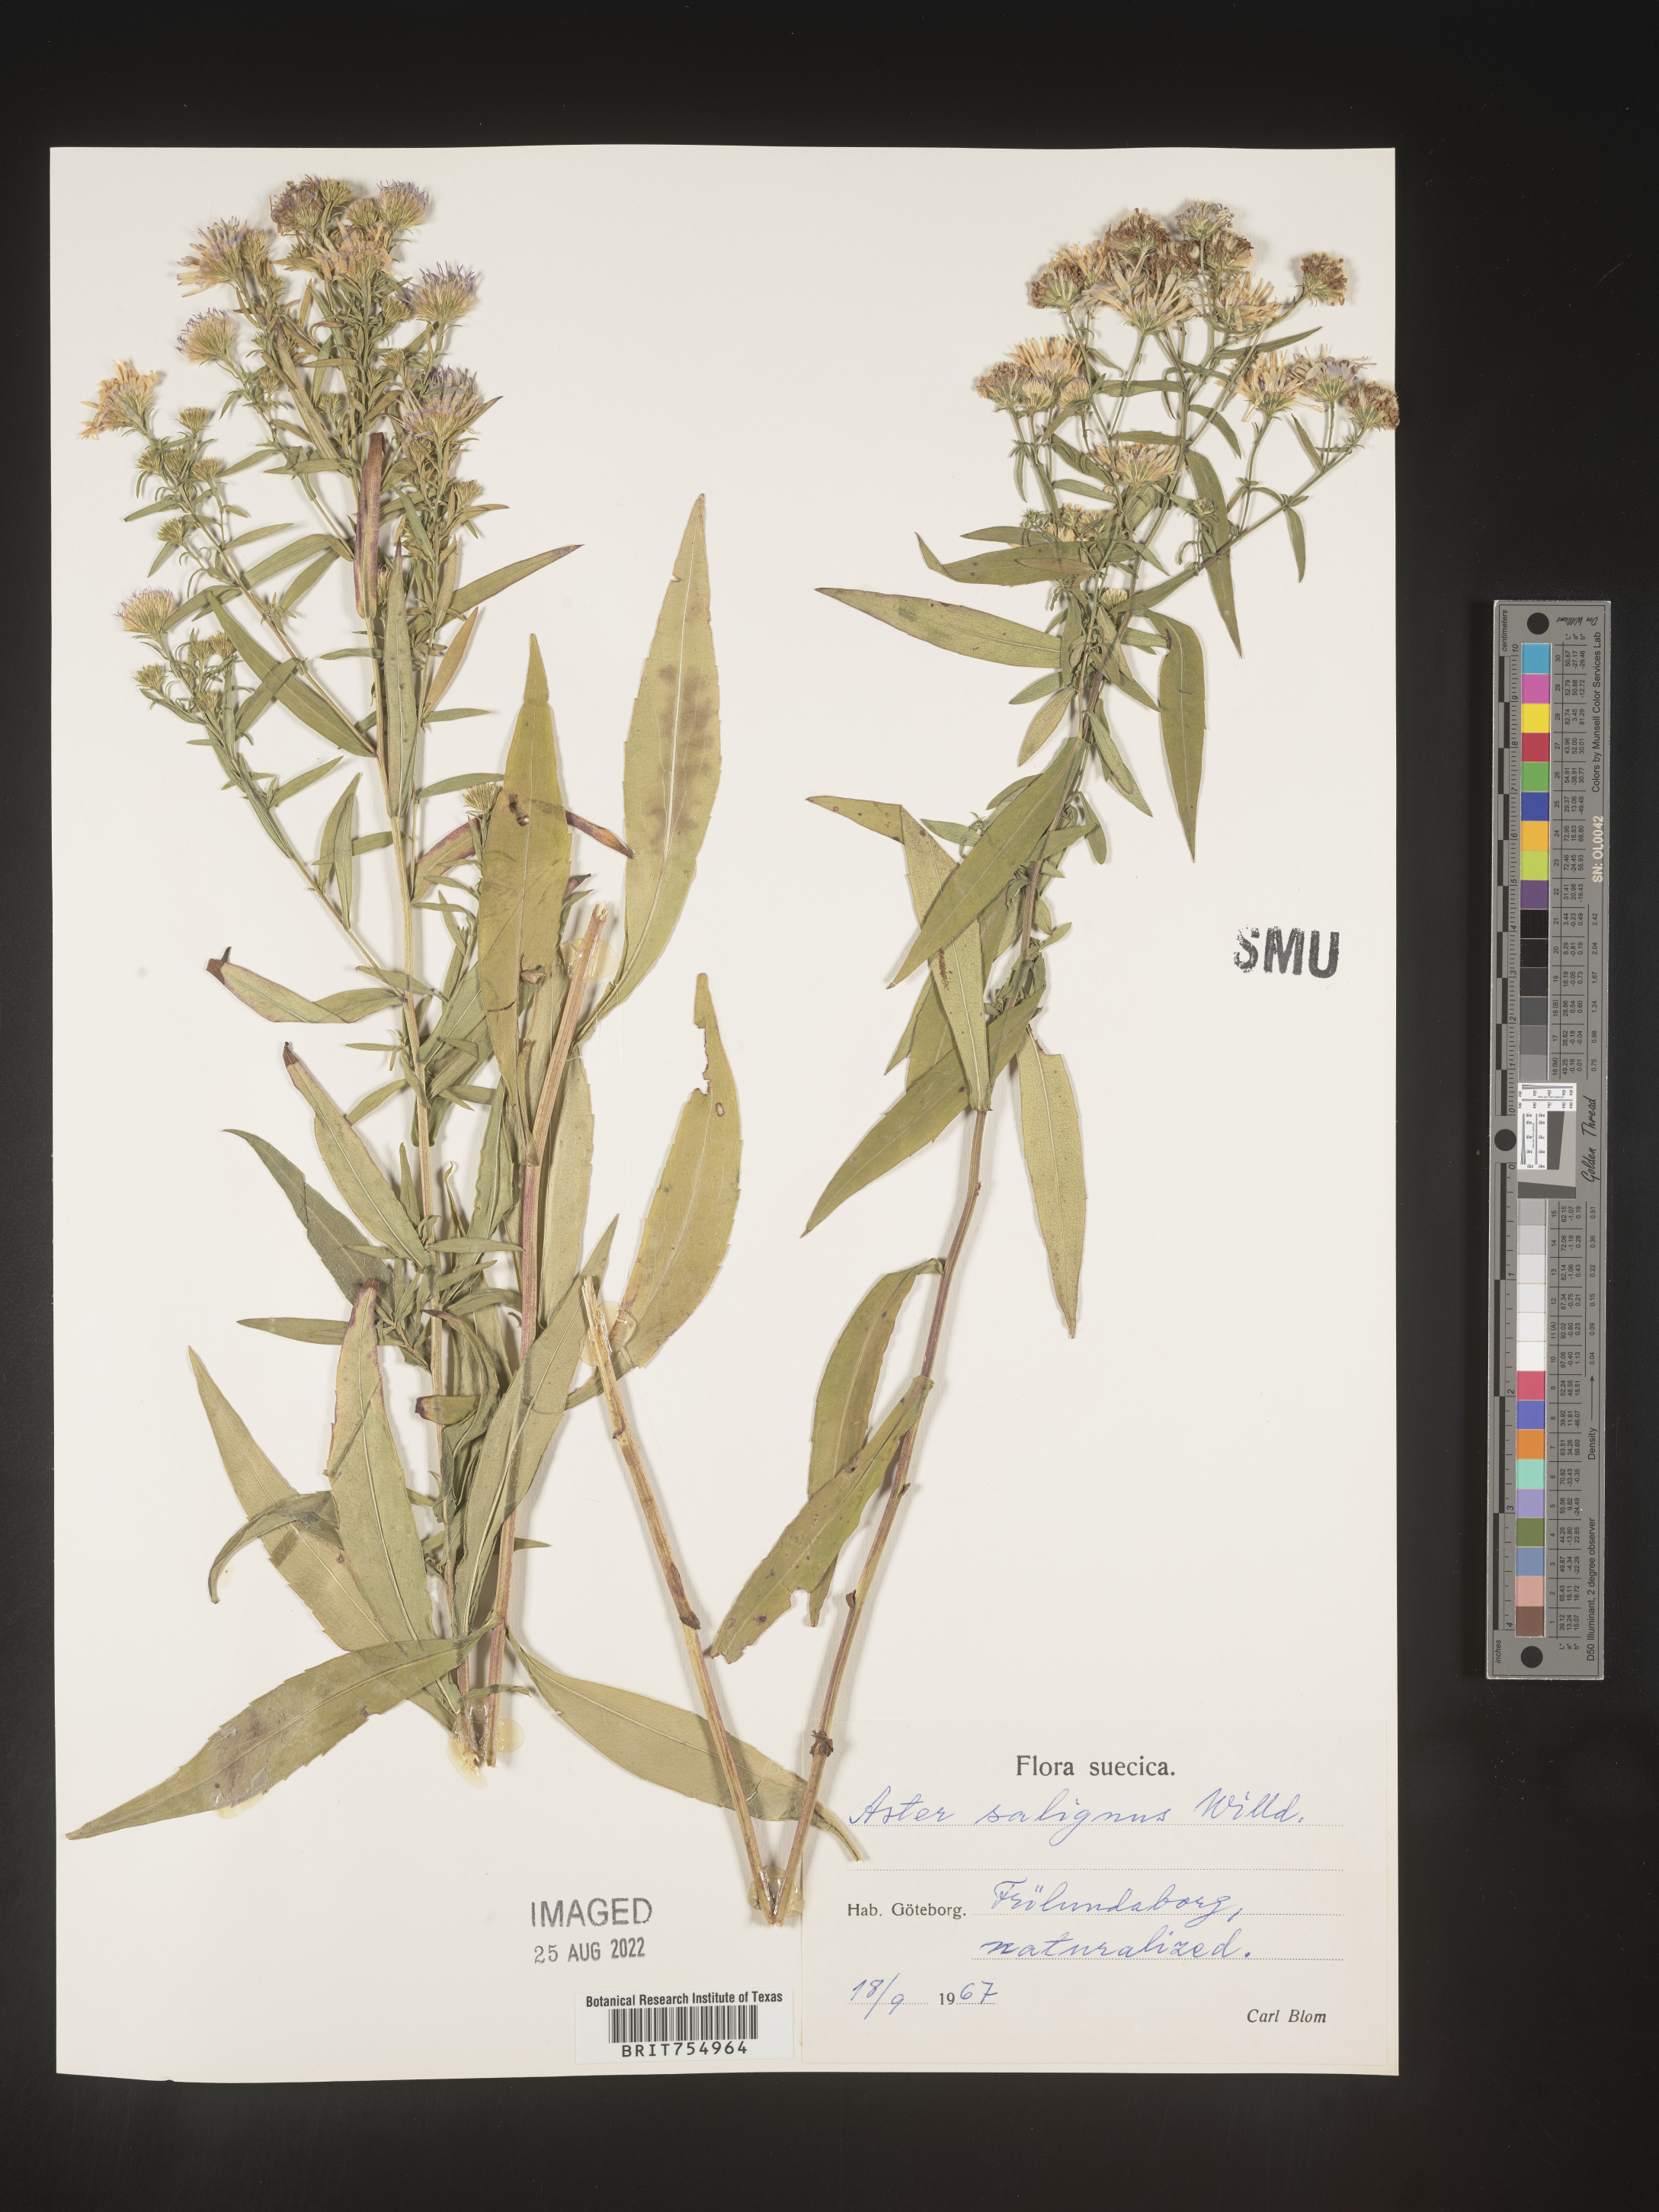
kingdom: Plantae
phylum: Tracheophyta
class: Magnoliopsida
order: Asterales
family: Asteraceae
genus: Symphyotrichum
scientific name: Symphyotrichum
